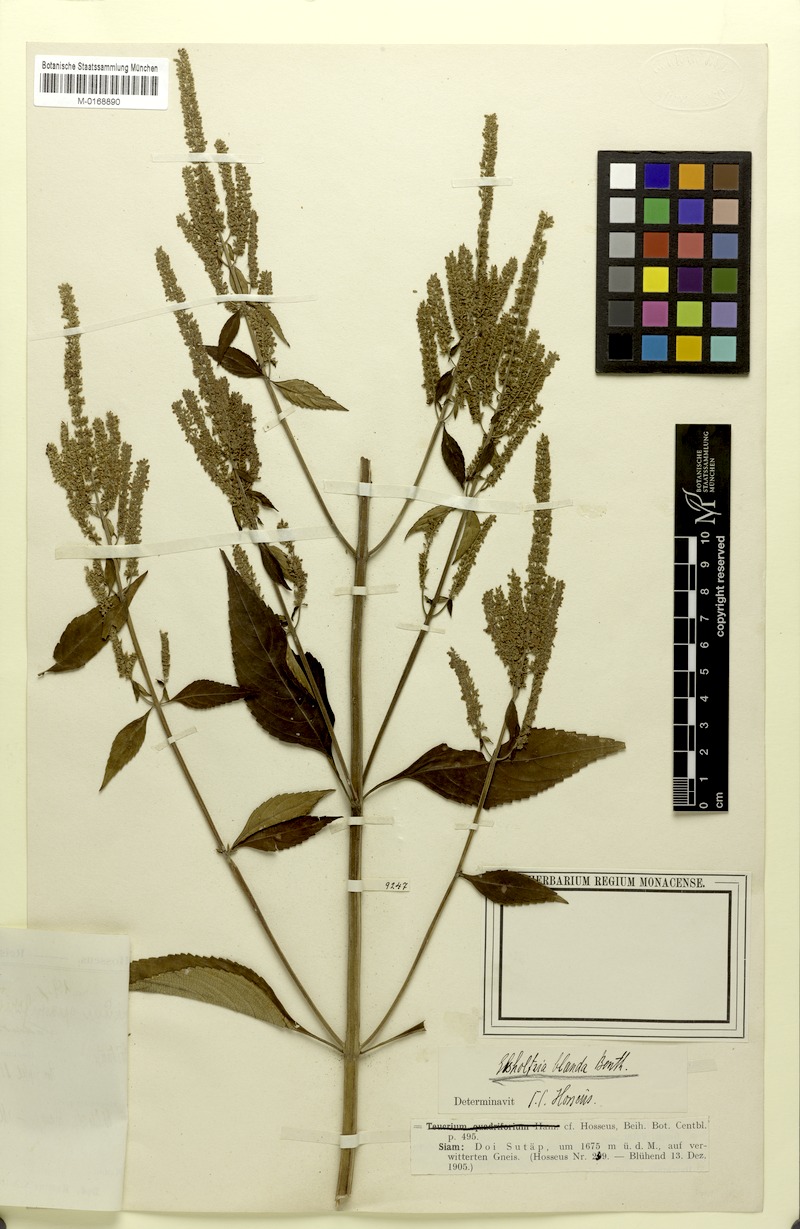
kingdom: Plantae
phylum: Tracheophyta
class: Magnoliopsida
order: Lamiales
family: Lamiaceae
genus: Elsholtzia
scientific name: Elsholtzia blanda
